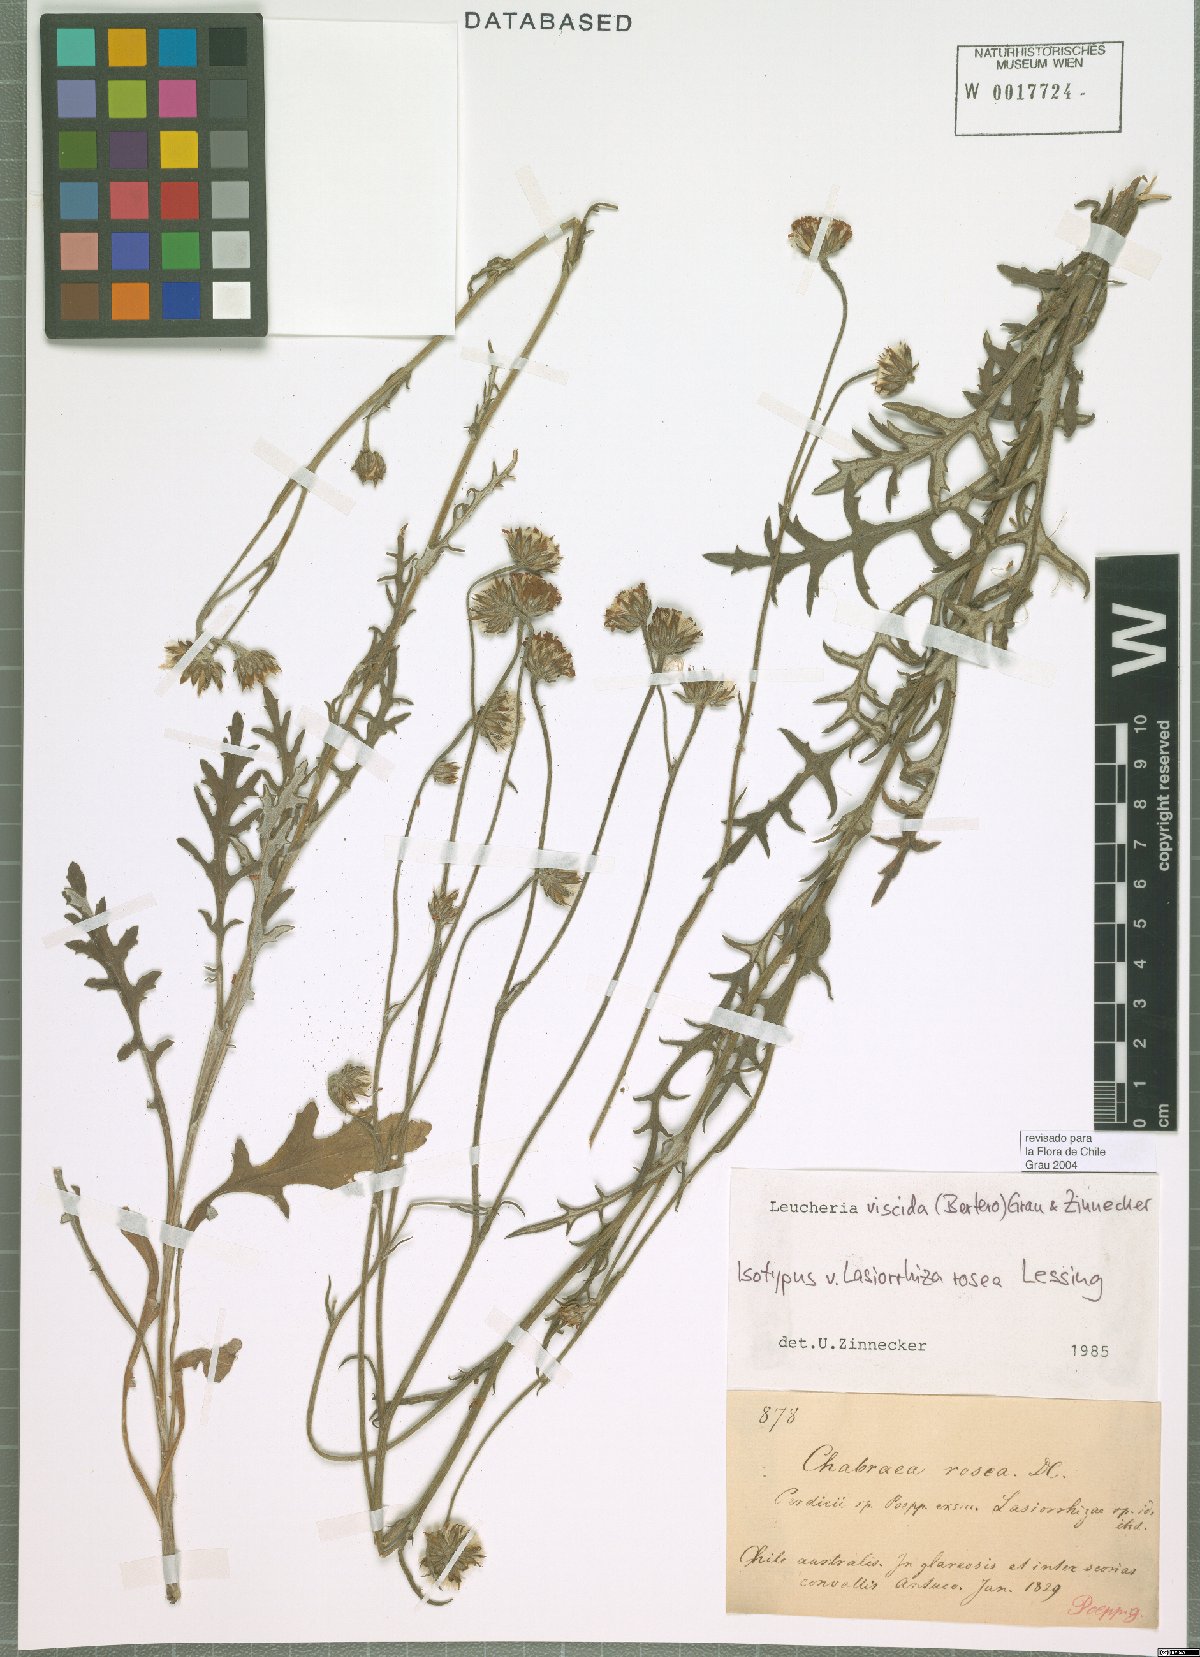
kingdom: Plantae
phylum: Tracheophyta
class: Magnoliopsida
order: Asterales
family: Asteraceae
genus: Leucheria
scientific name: Leucheria viscida
